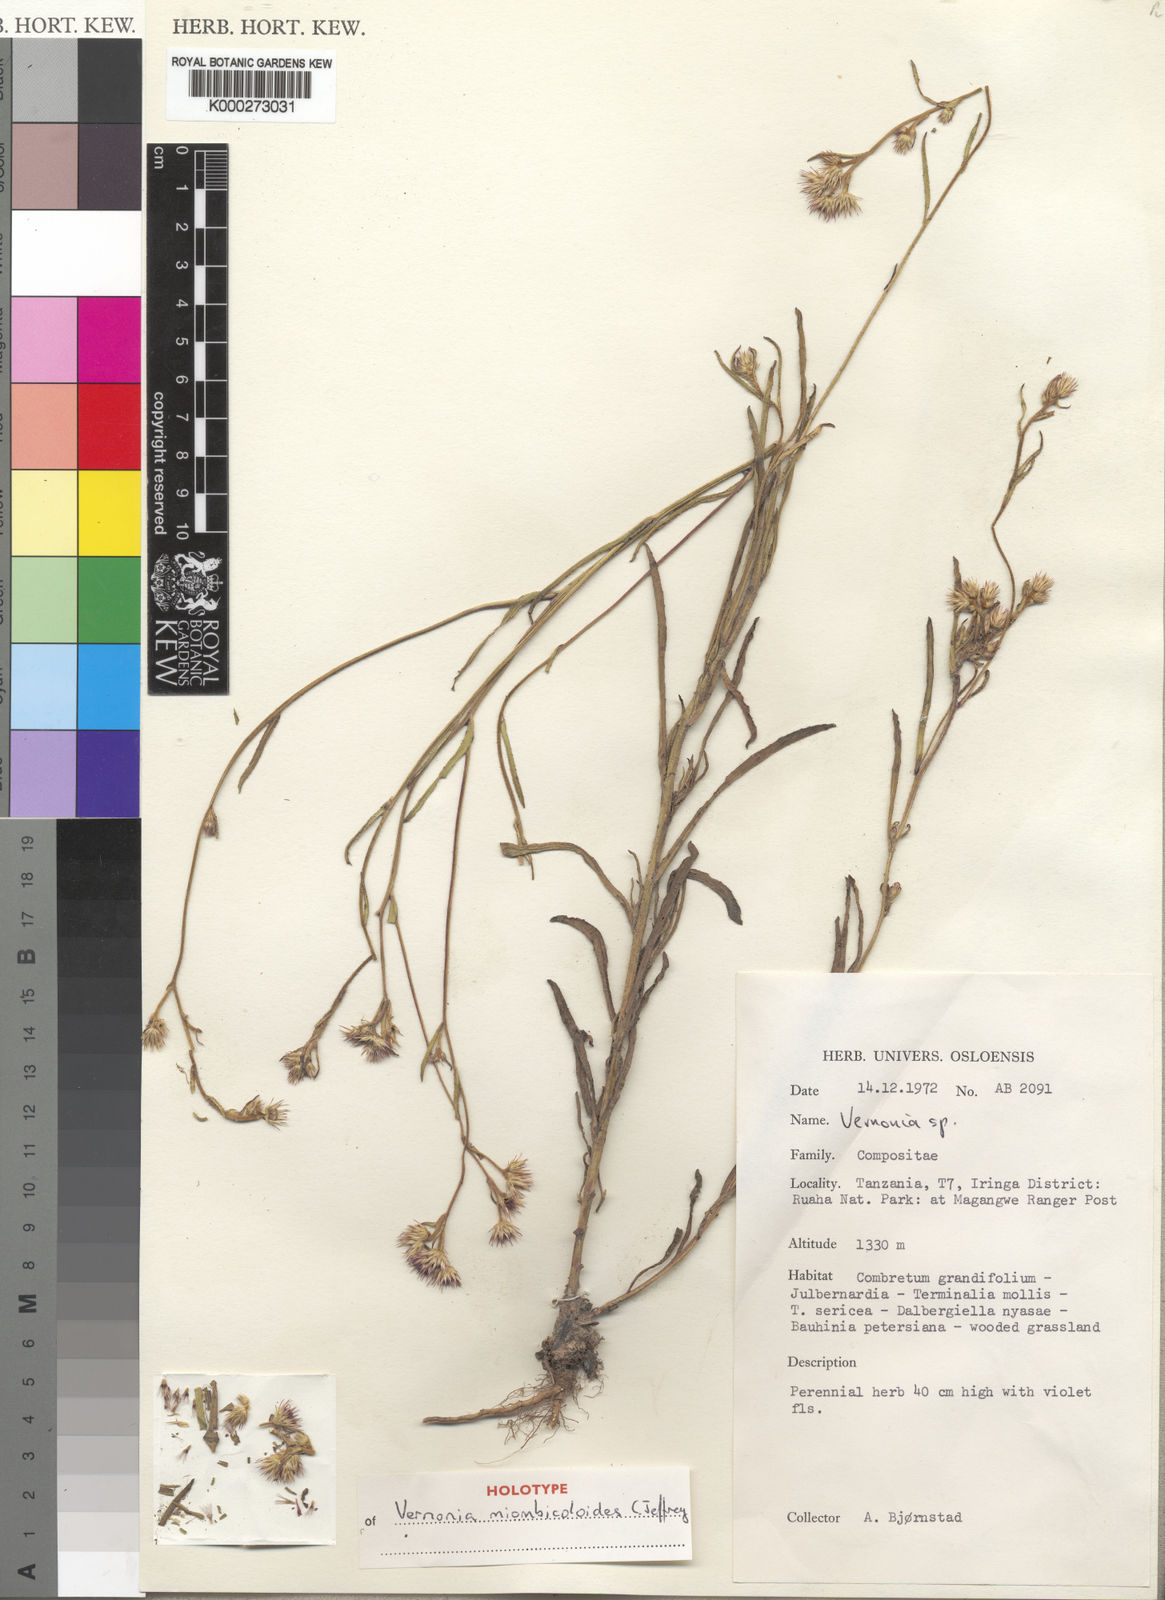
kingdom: Plantae
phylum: Tracheophyta
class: Magnoliopsida
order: Asterales
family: Asteraceae
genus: Vernonia
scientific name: Vernonia miombicoloides
